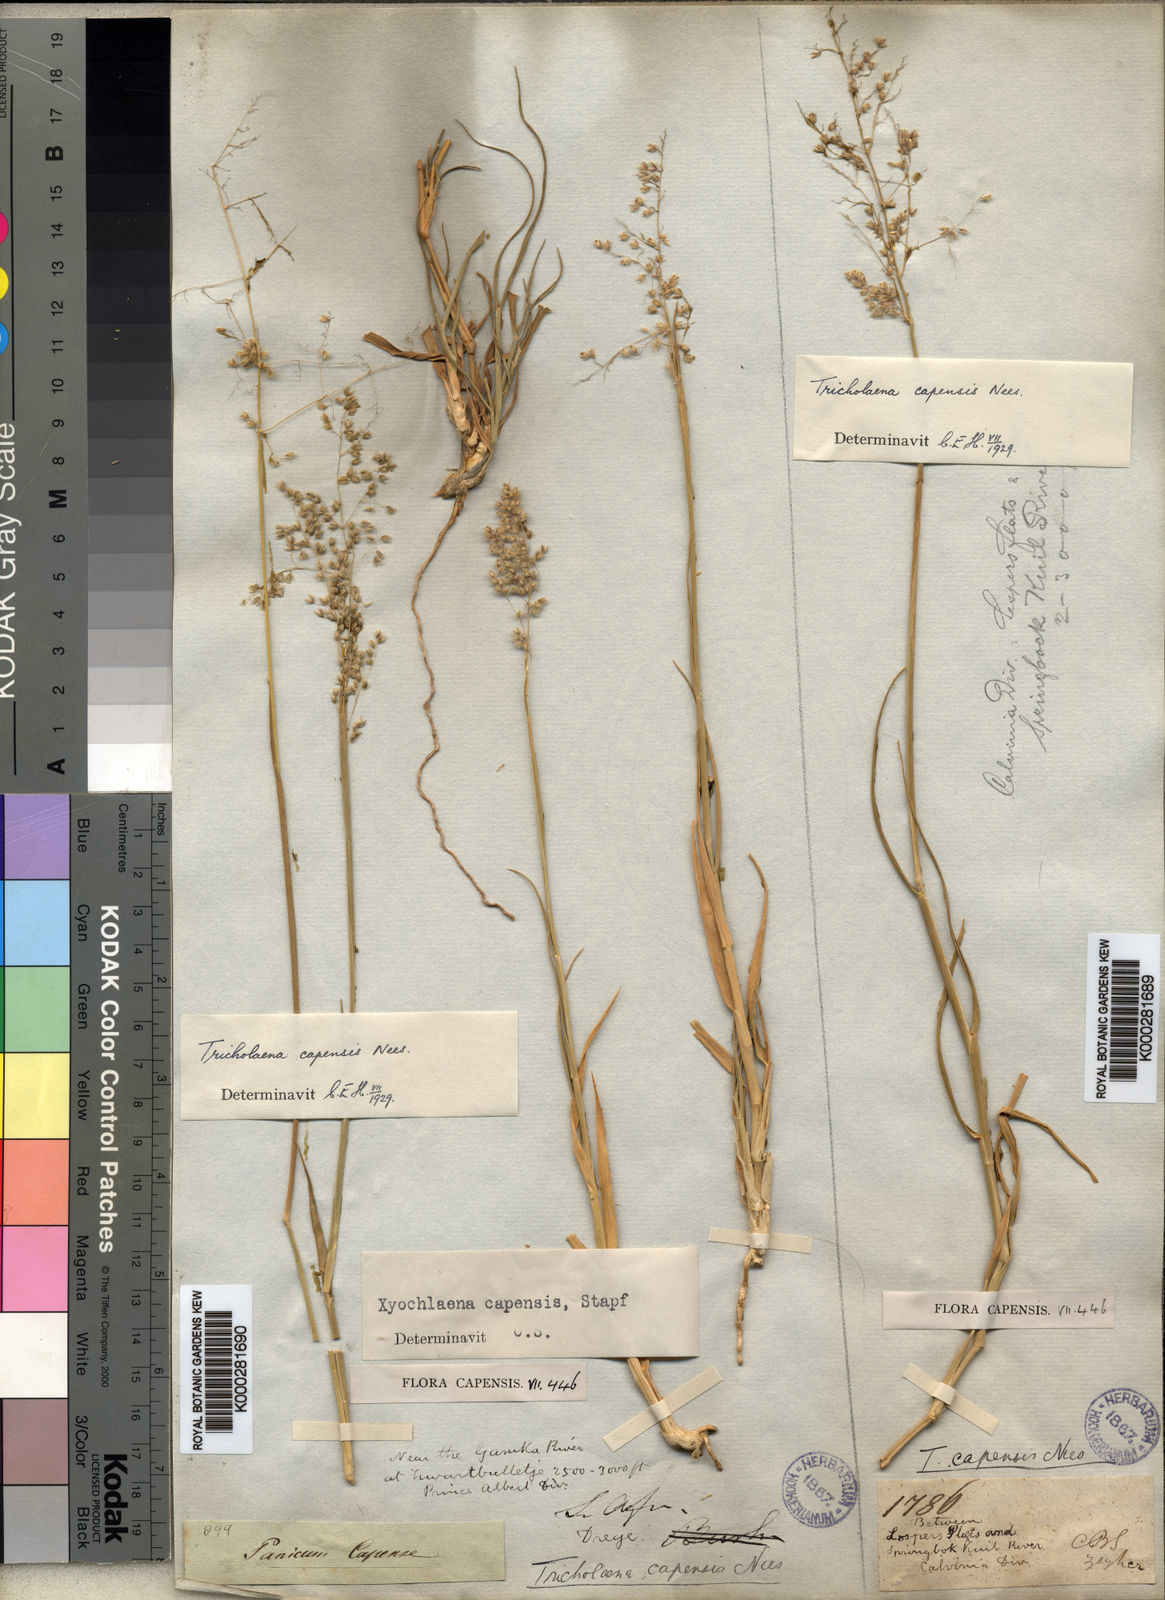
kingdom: Plantae
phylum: Tracheophyta
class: Liliopsida
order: Poales
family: Poaceae
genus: Tricholaena
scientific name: Tricholaena capensis
